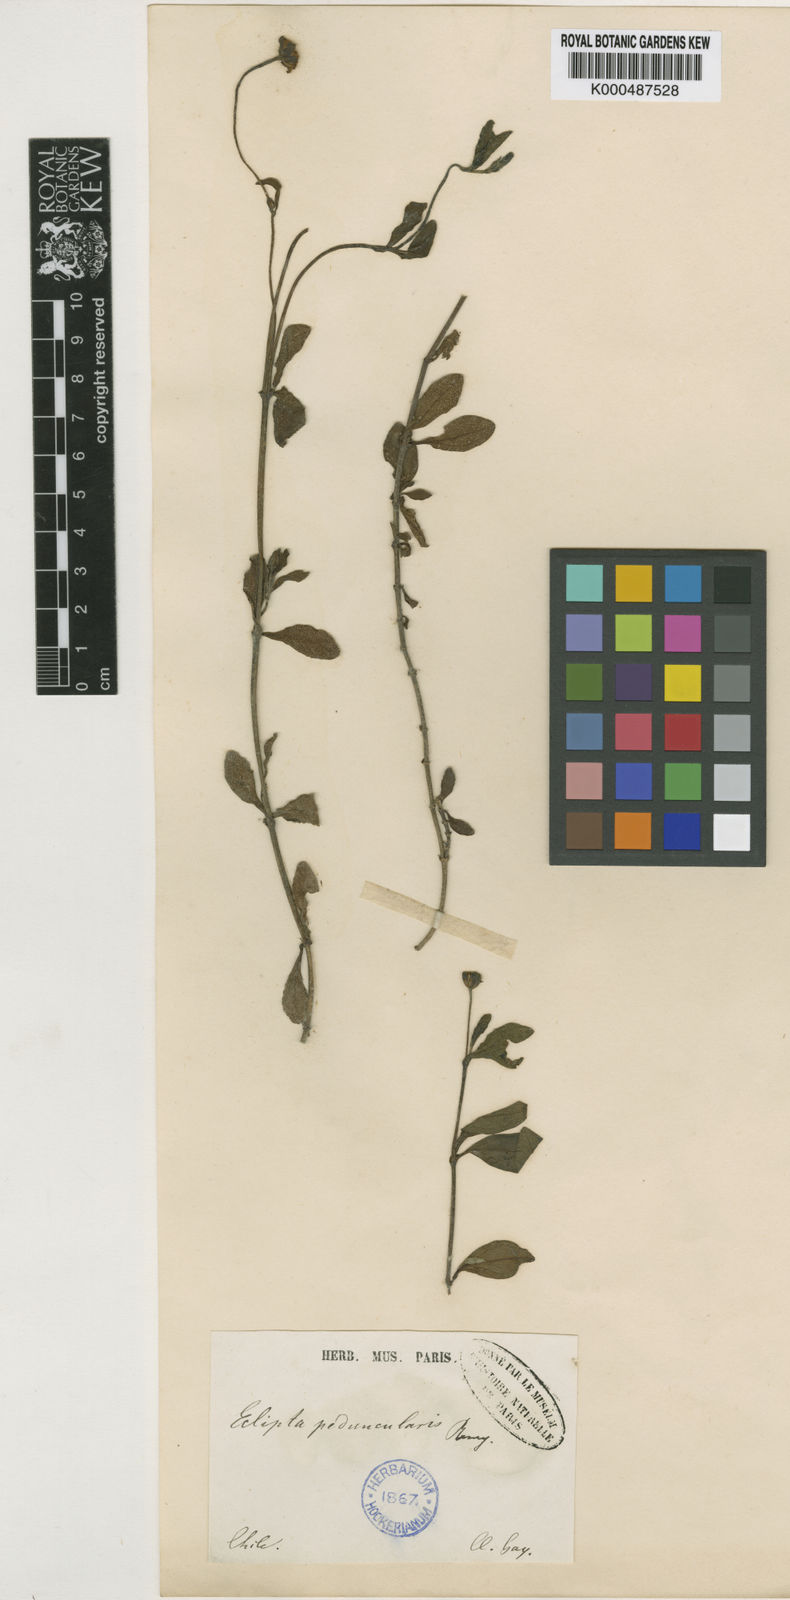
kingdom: Plantae
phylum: Tracheophyta
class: Magnoliopsida
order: Asterales
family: Asteraceae
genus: Eclipta
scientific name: Eclipta elliptica
